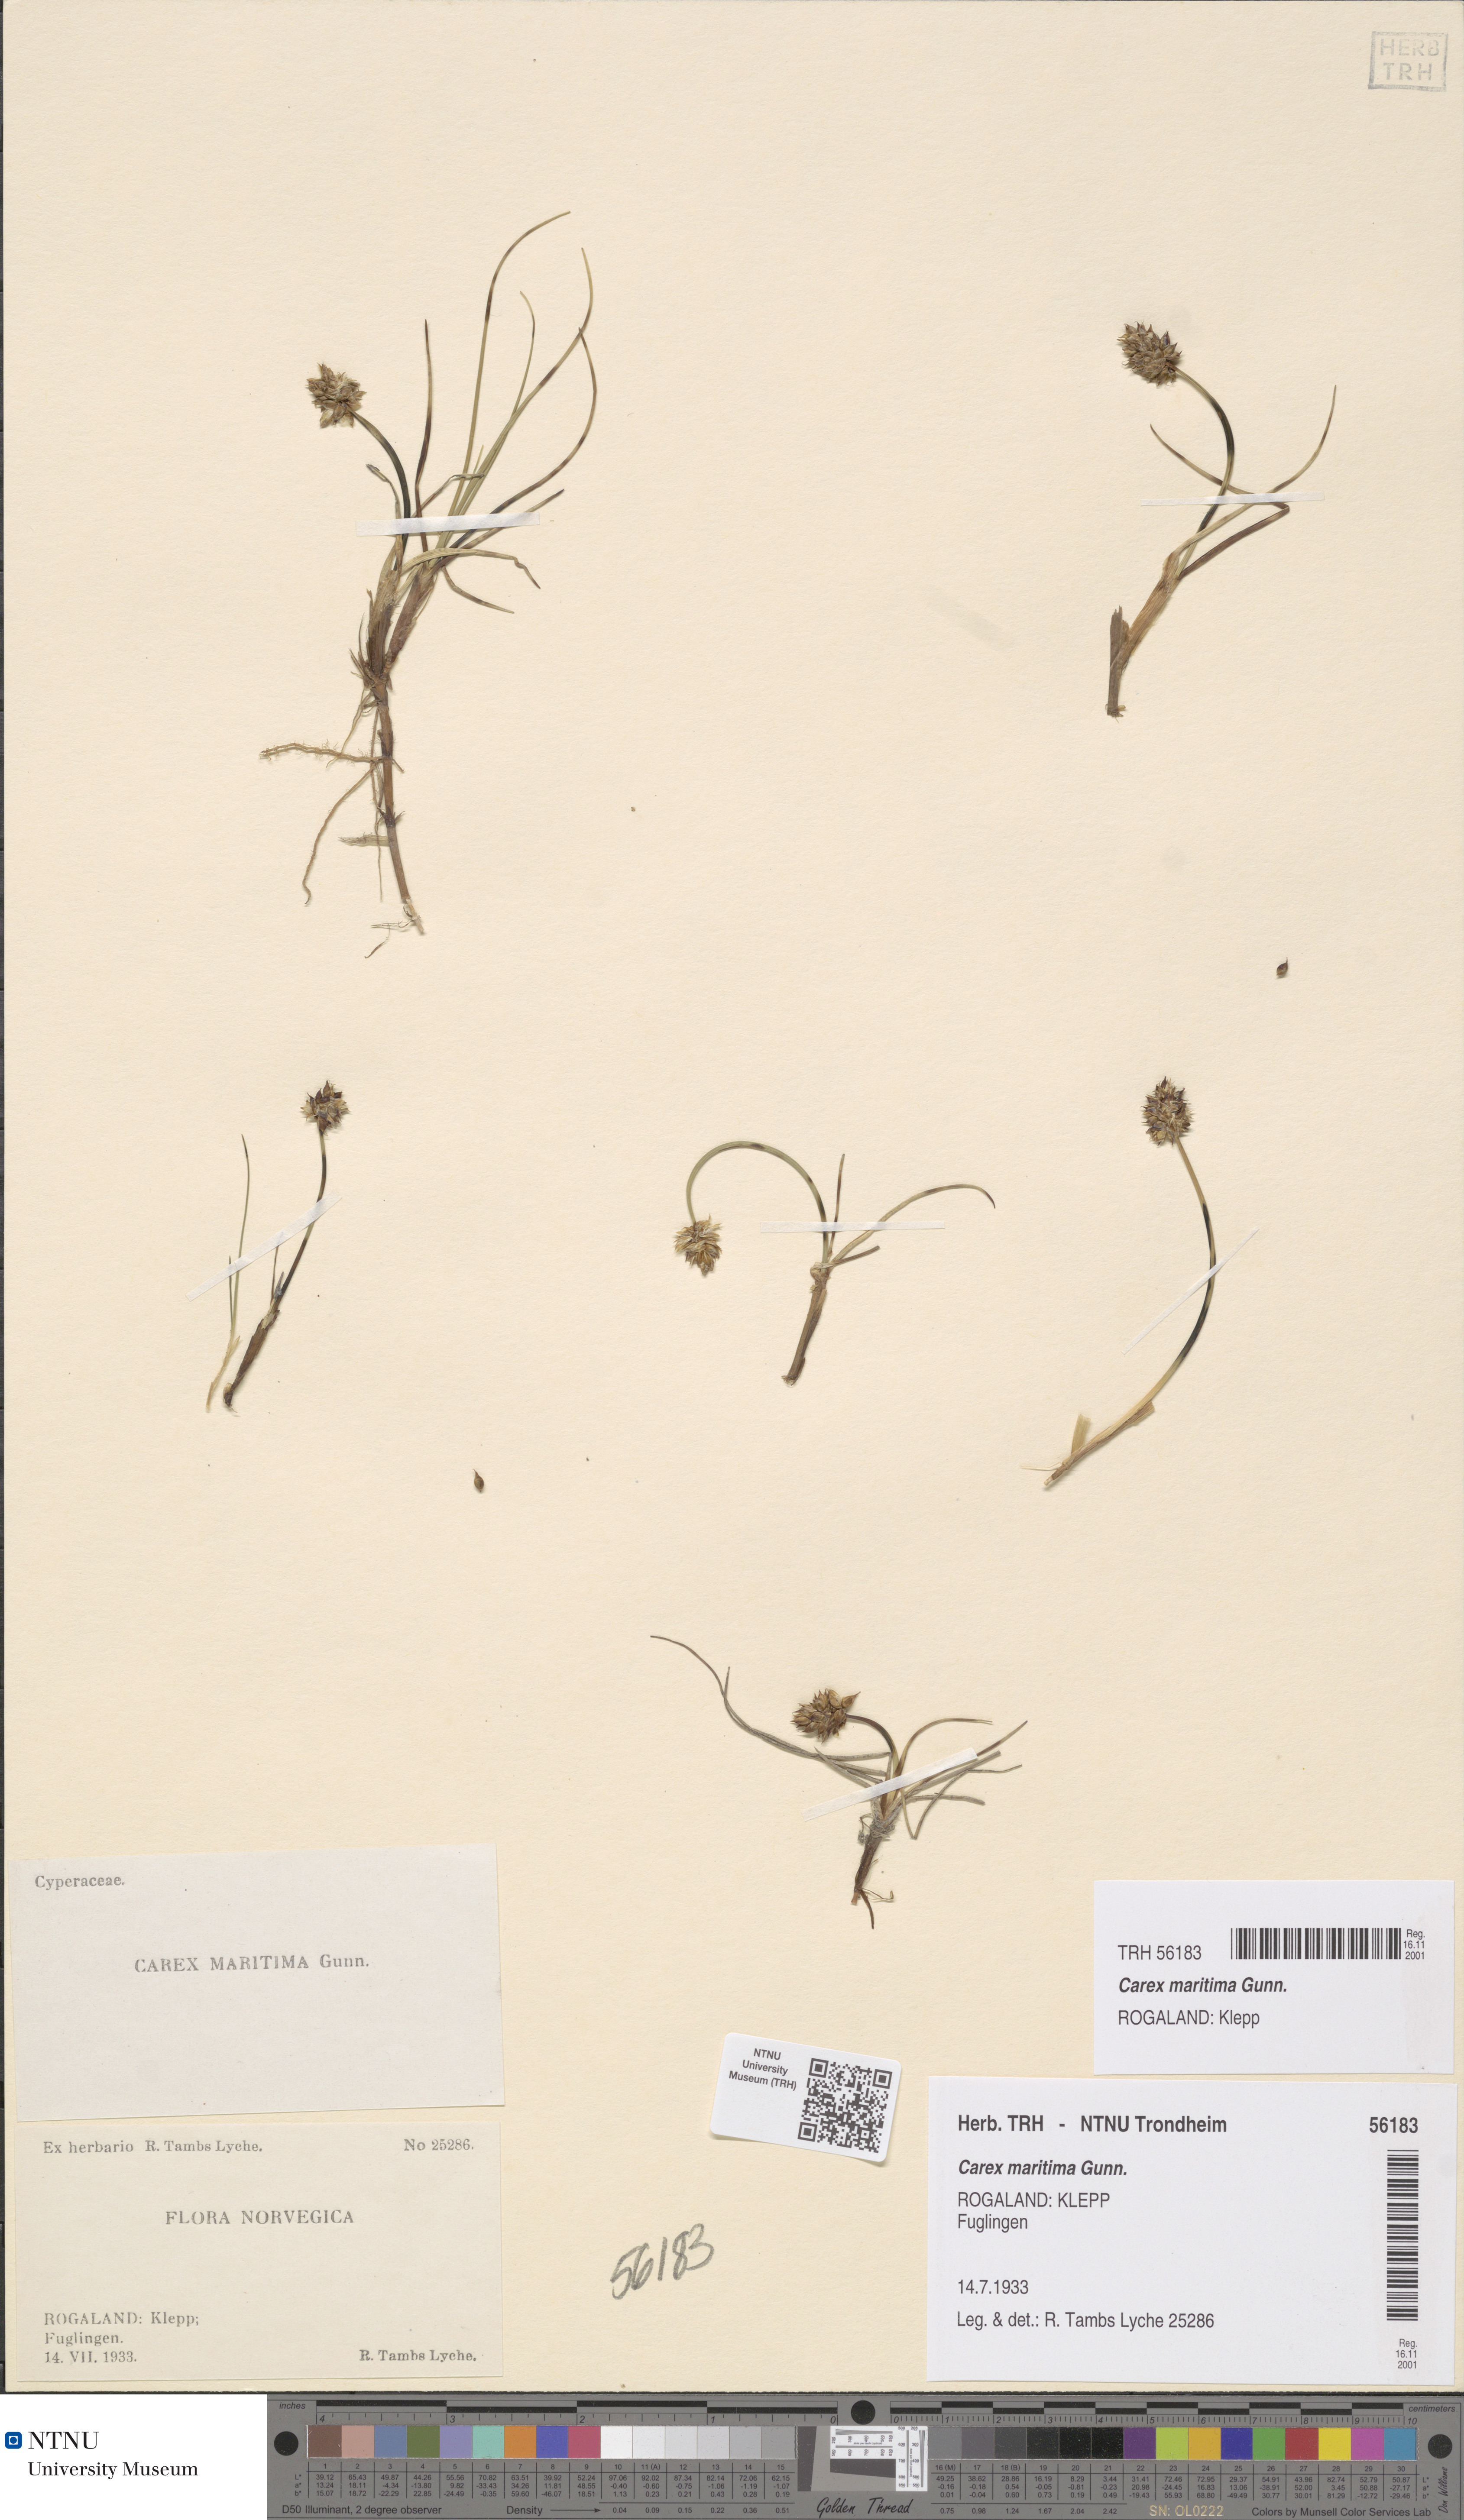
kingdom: Plantae
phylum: Tracheophyta
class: Liliopsida
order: Poales
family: Cyperaceae
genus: Carex
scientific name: Carex maritima
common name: Curved sedge
